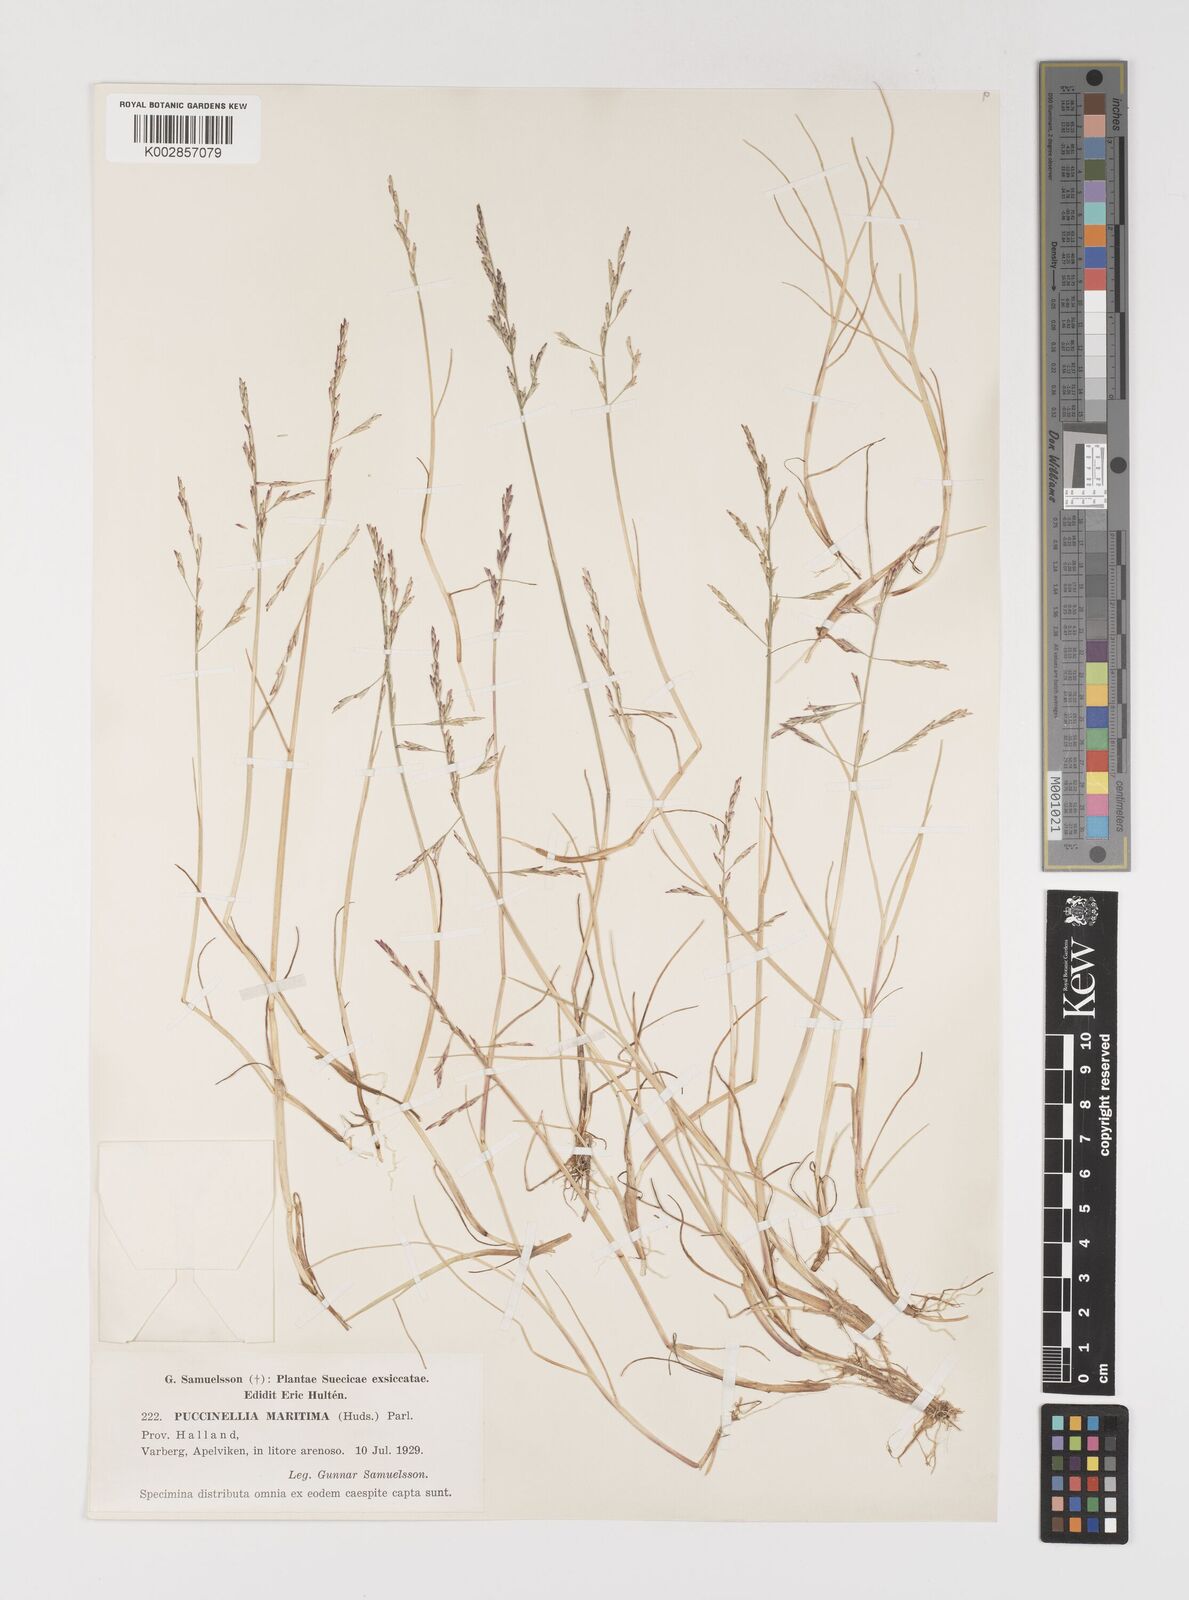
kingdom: Plantae
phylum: Tracheophyta
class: Liliopsida
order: Poales
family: Poaceae
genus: Puccinellia
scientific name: Puccinellia maritima
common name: Common saltmarsh grass
